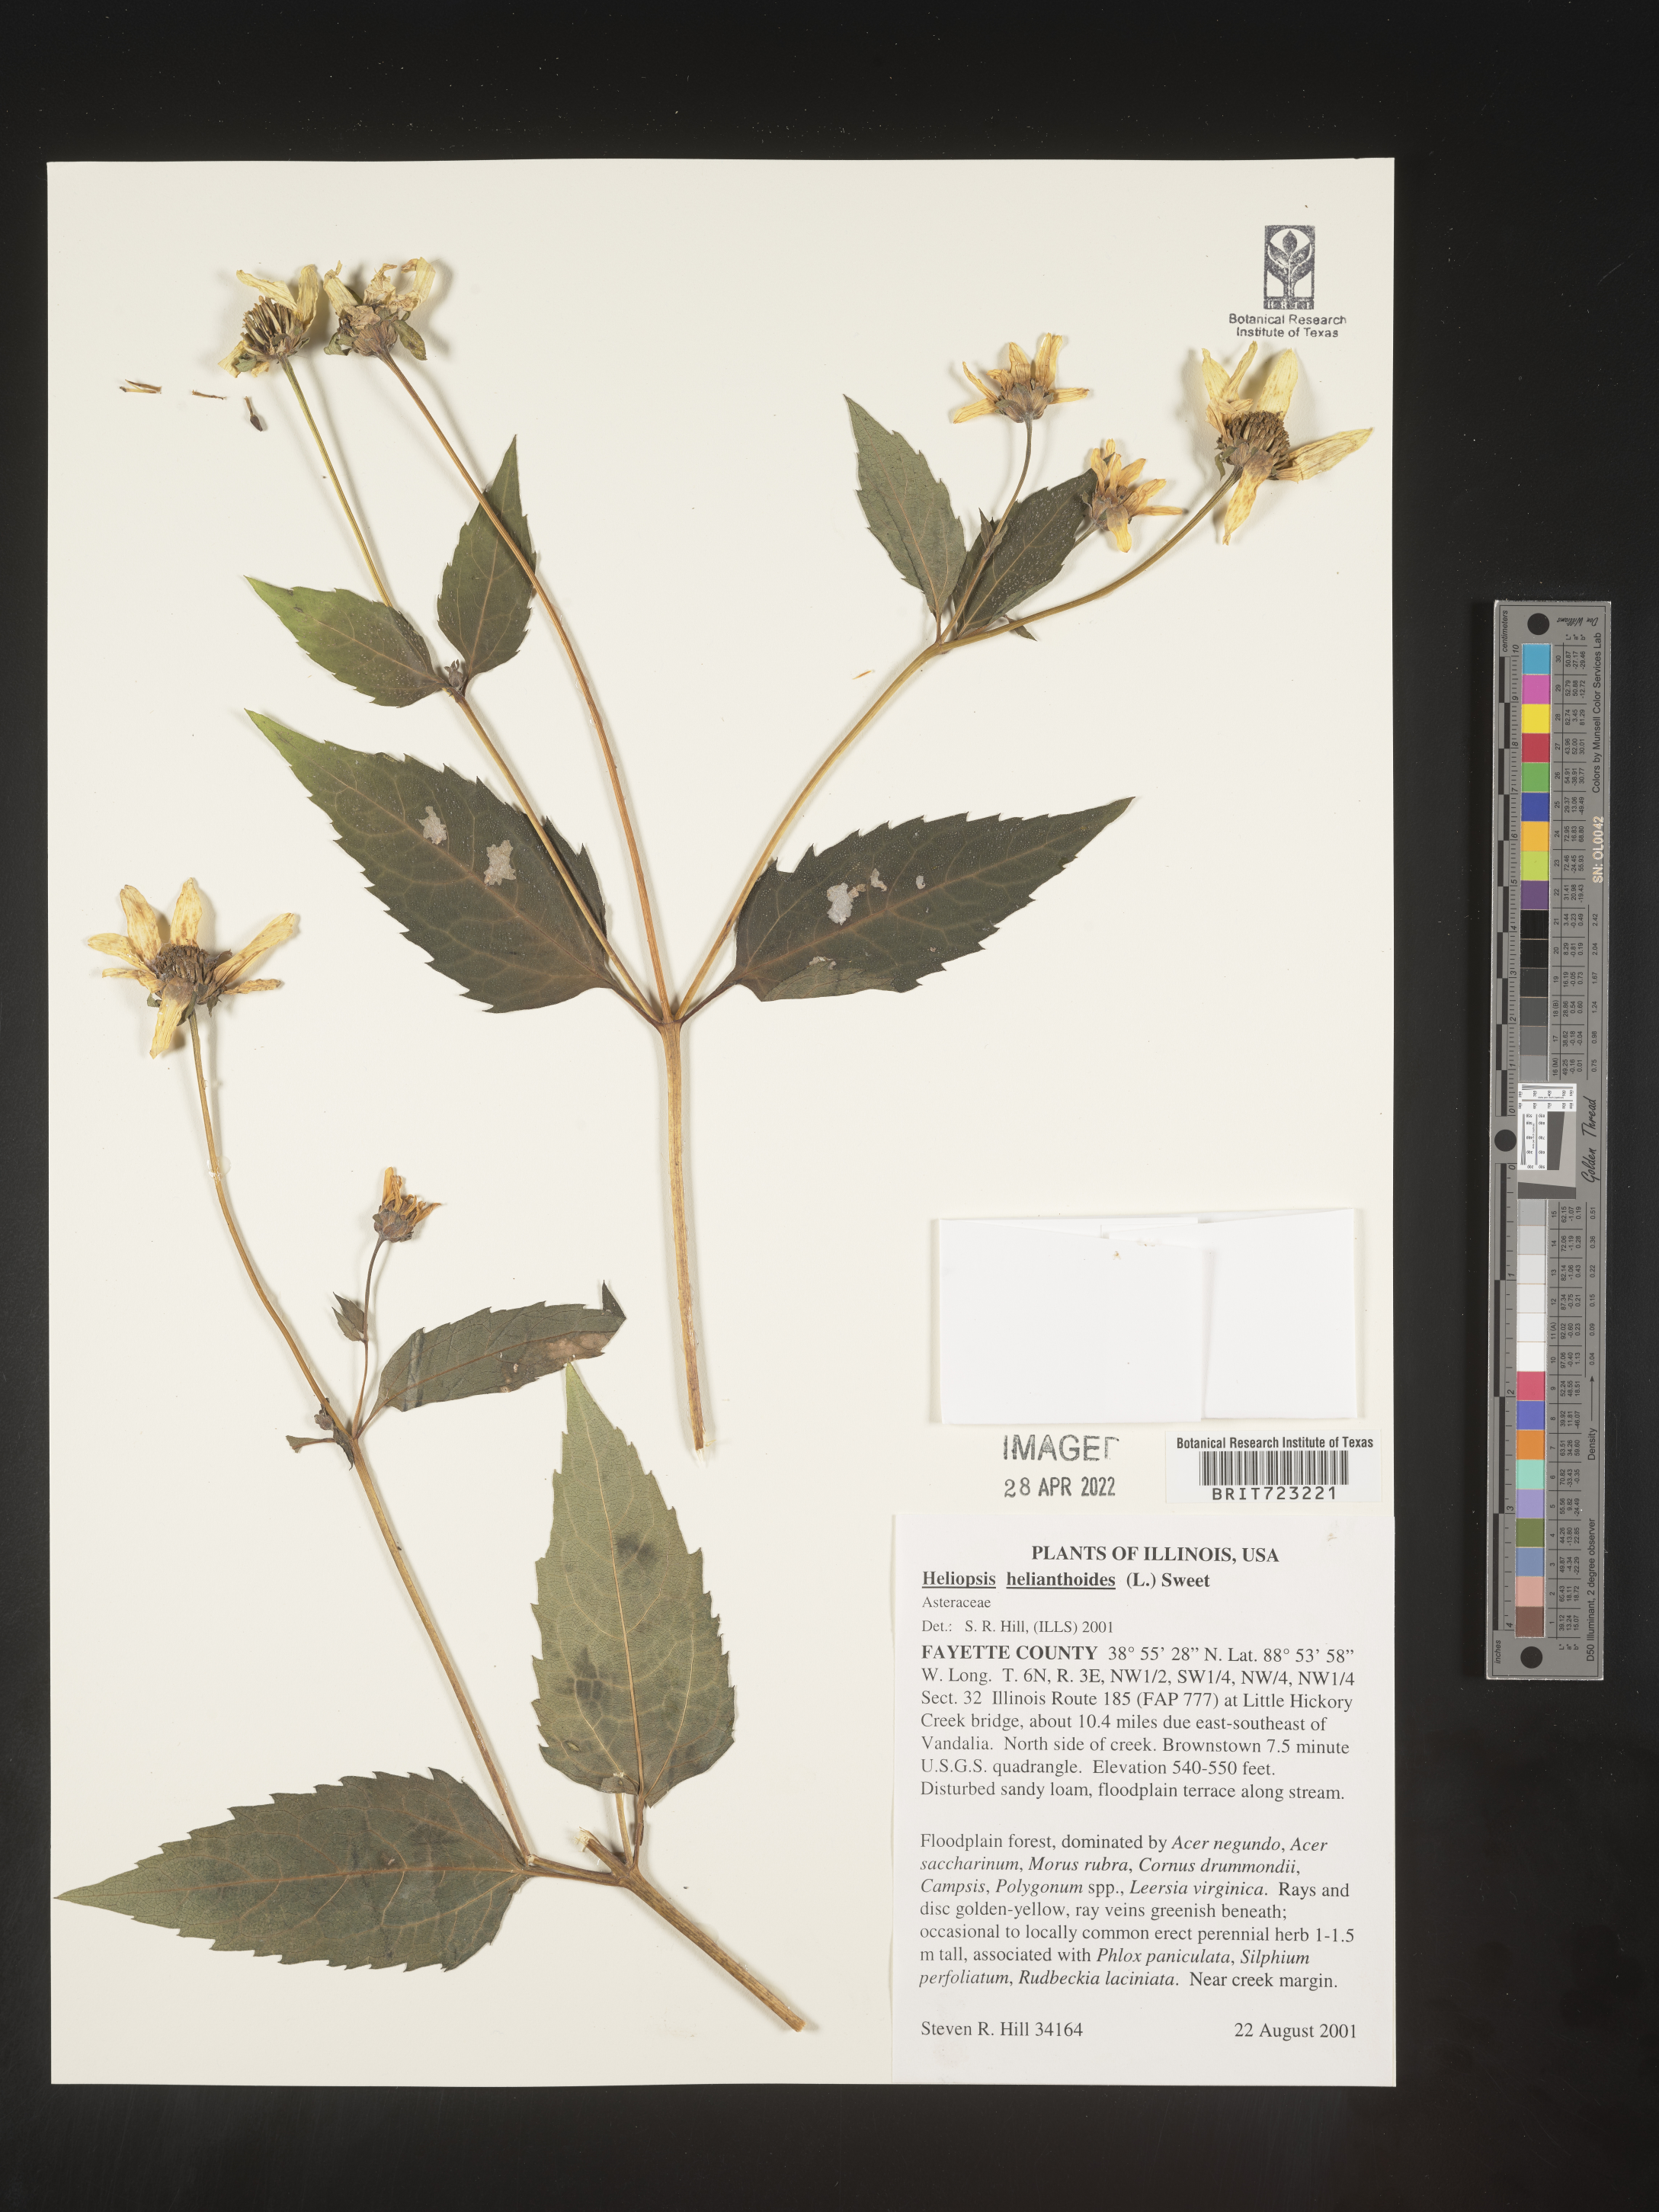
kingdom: Plantae
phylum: Tracheophyta
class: Magnoliopsida
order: Asterales
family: Asteraceae
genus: Heliopsis
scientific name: Heliopsis helianthoides
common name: False sunflower
